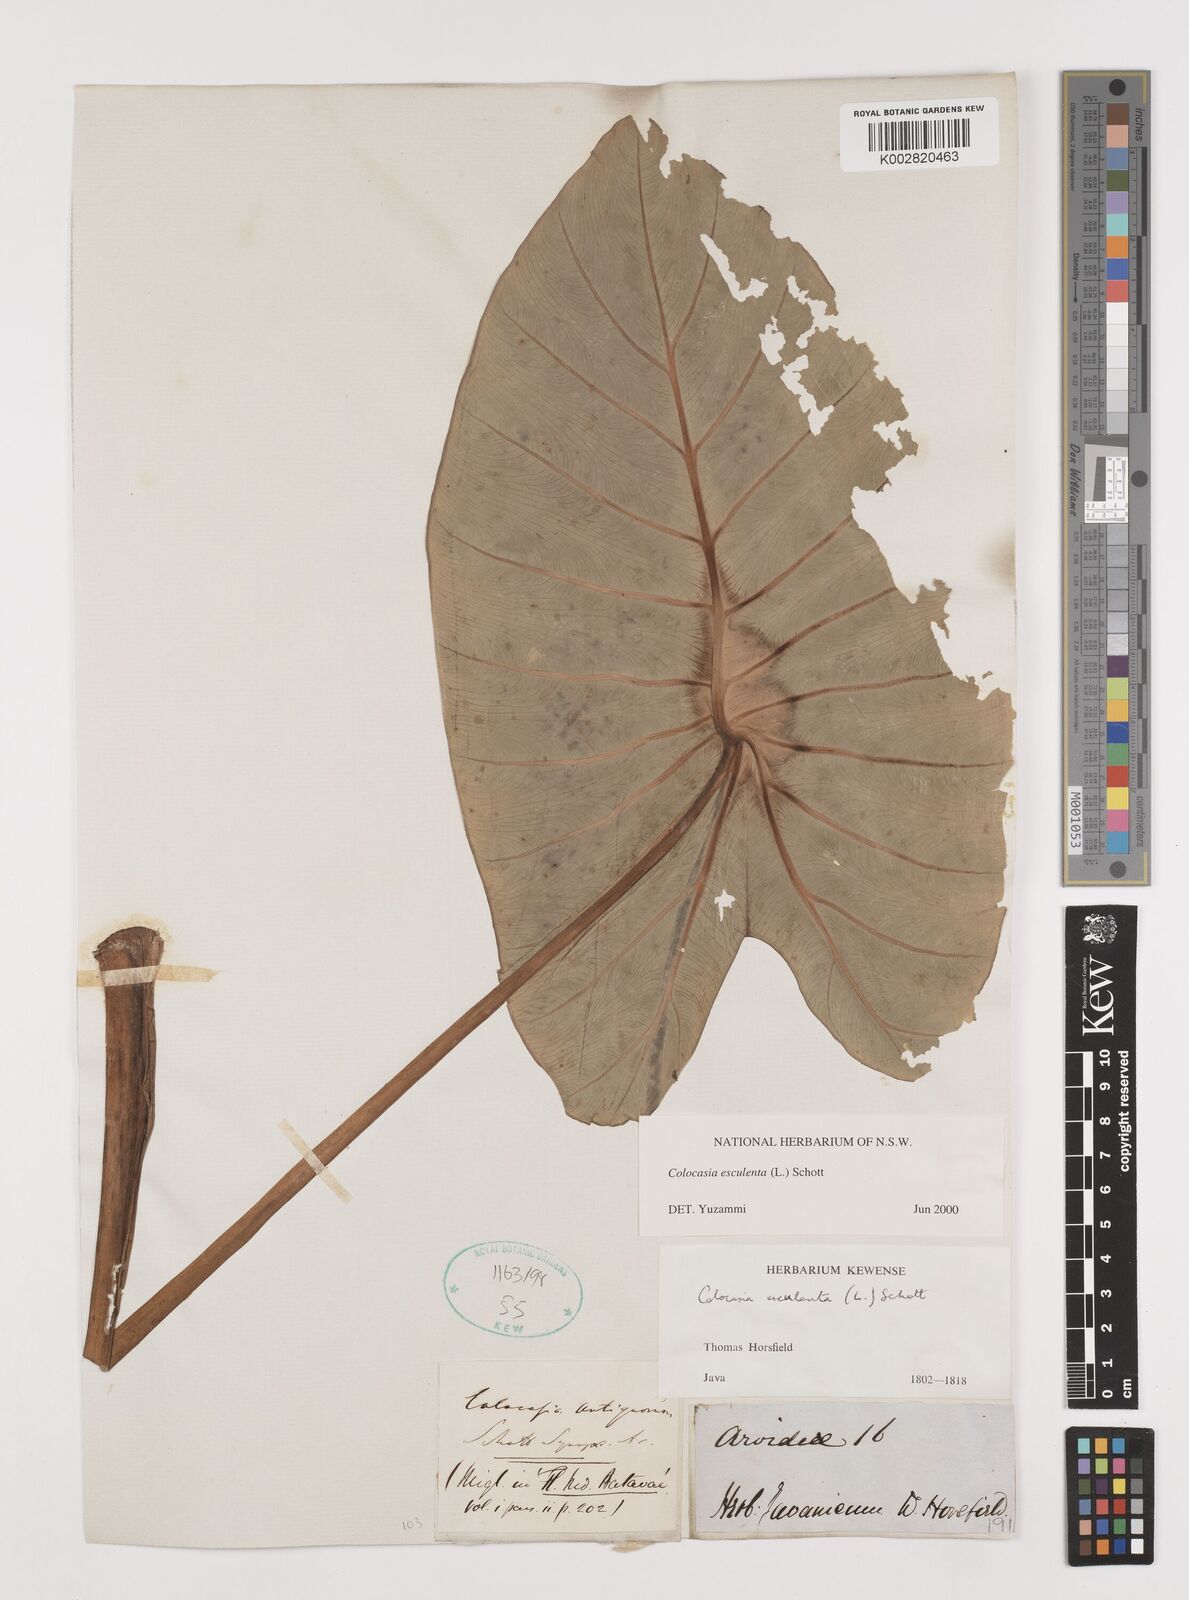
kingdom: Plantae
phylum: Tracheophyta
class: Liliopsida
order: Alismatales
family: Araceae
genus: Colocasia
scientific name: Colocasia esculenta
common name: Taro
